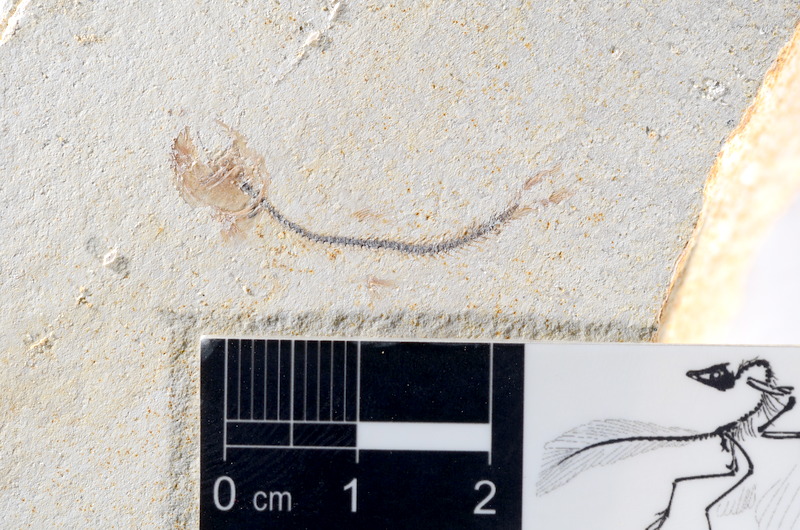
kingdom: Animalia
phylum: Chordata
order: Salmoniformes
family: Orthogonikleithridae
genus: Orthogonikleithrus
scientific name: Orthogonikleithrus hoelli
